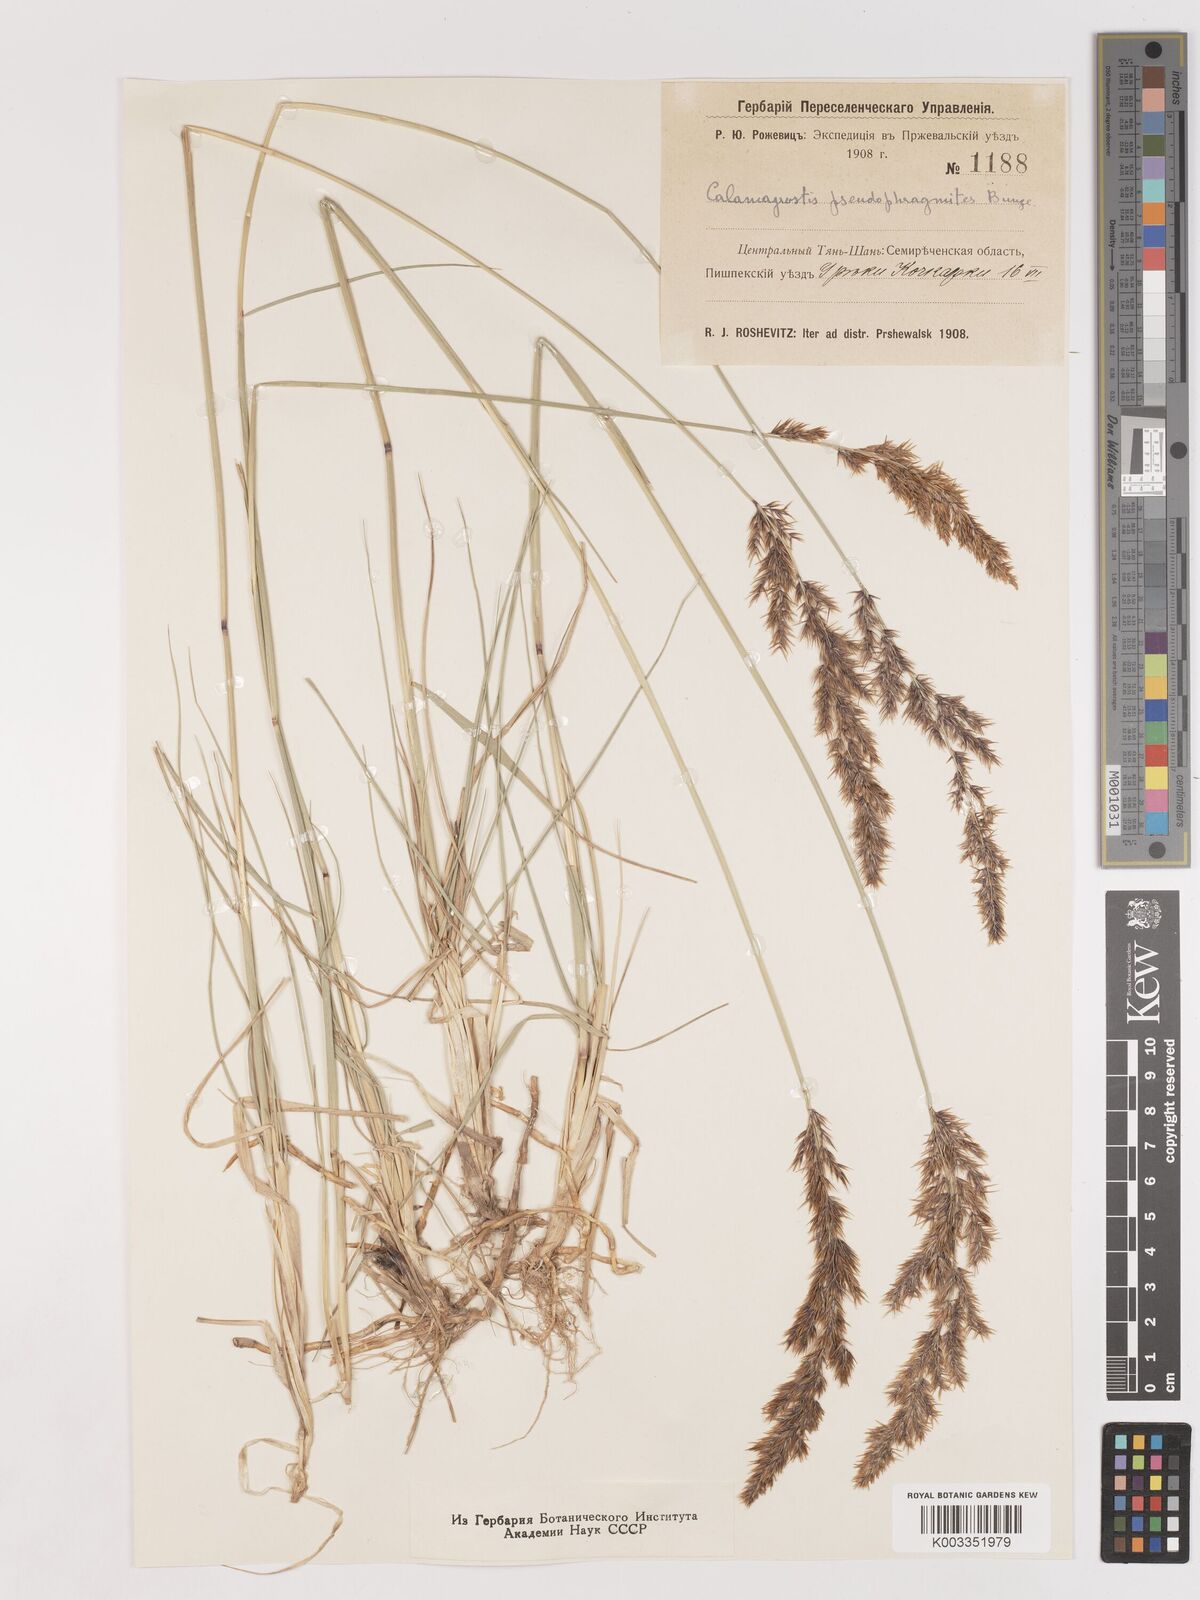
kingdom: Plantae
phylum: Tracheophyta
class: Liliopsida
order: Poales
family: Poaceae
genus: Calamagrostis
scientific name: Calamagrostis pseudophragmites
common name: Coastal small-reed
